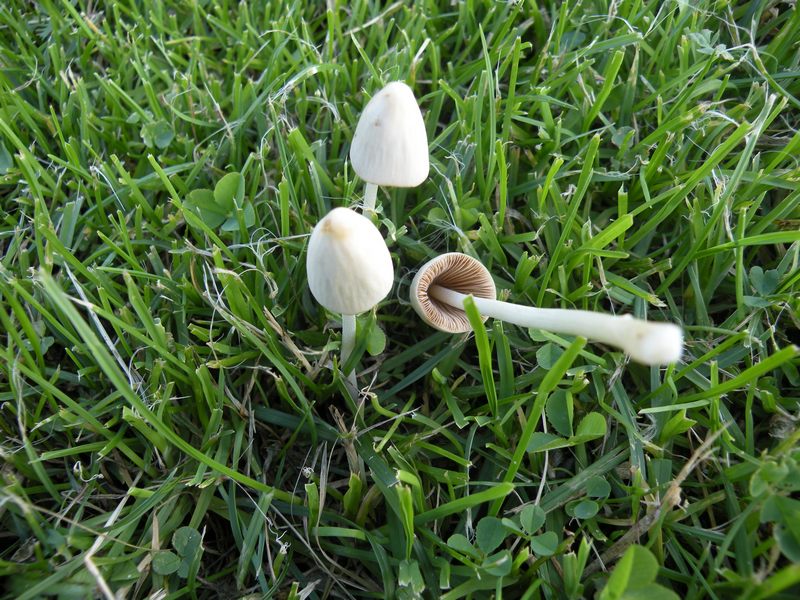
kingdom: Fungi
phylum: Basidiomycota
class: Agaricomycetes
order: Agaricales
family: Bolbitiaceae
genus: Conocybe
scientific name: Conocybe apala
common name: mælkehvid keglehat
